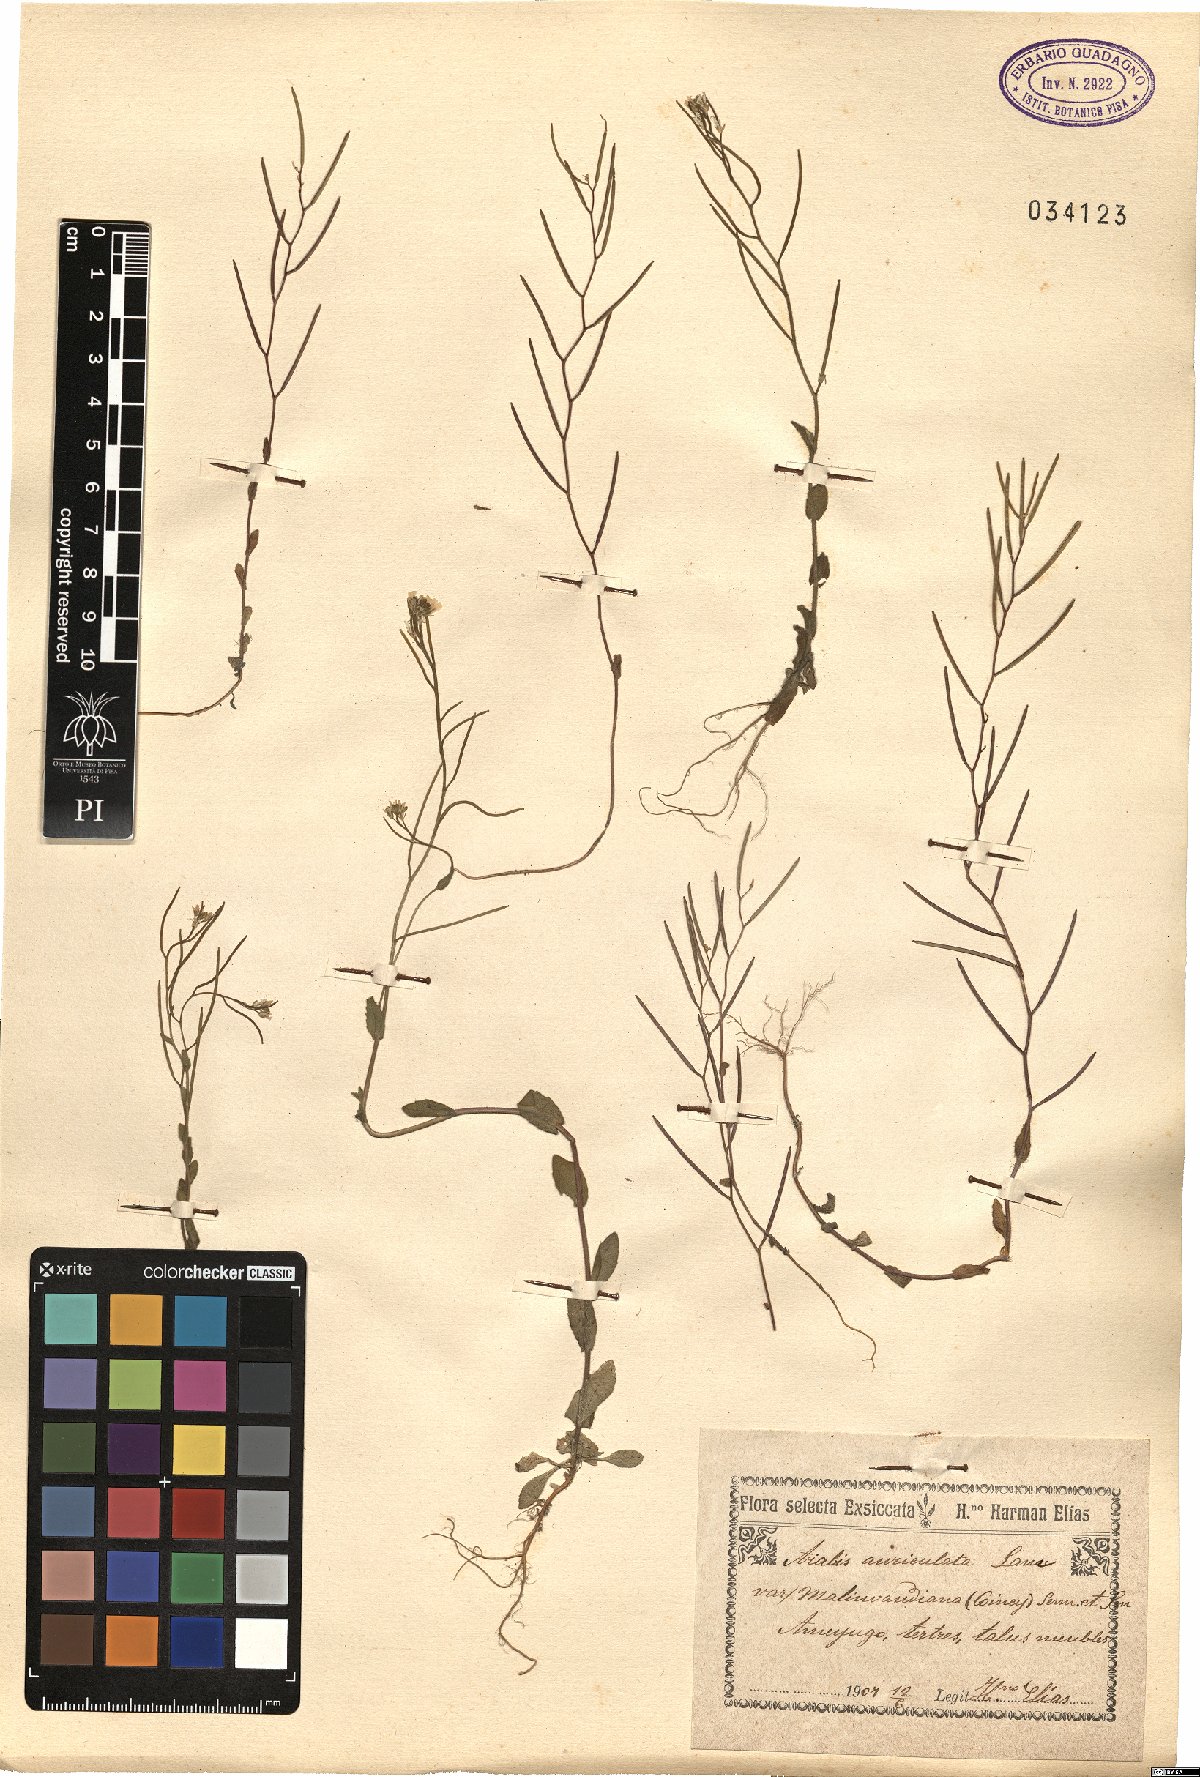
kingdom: Plantae
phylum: Tracheophyta
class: Magnoliopsida
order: Brassicales
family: Brassicaceae
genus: Arabis
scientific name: Arabis auriculata
